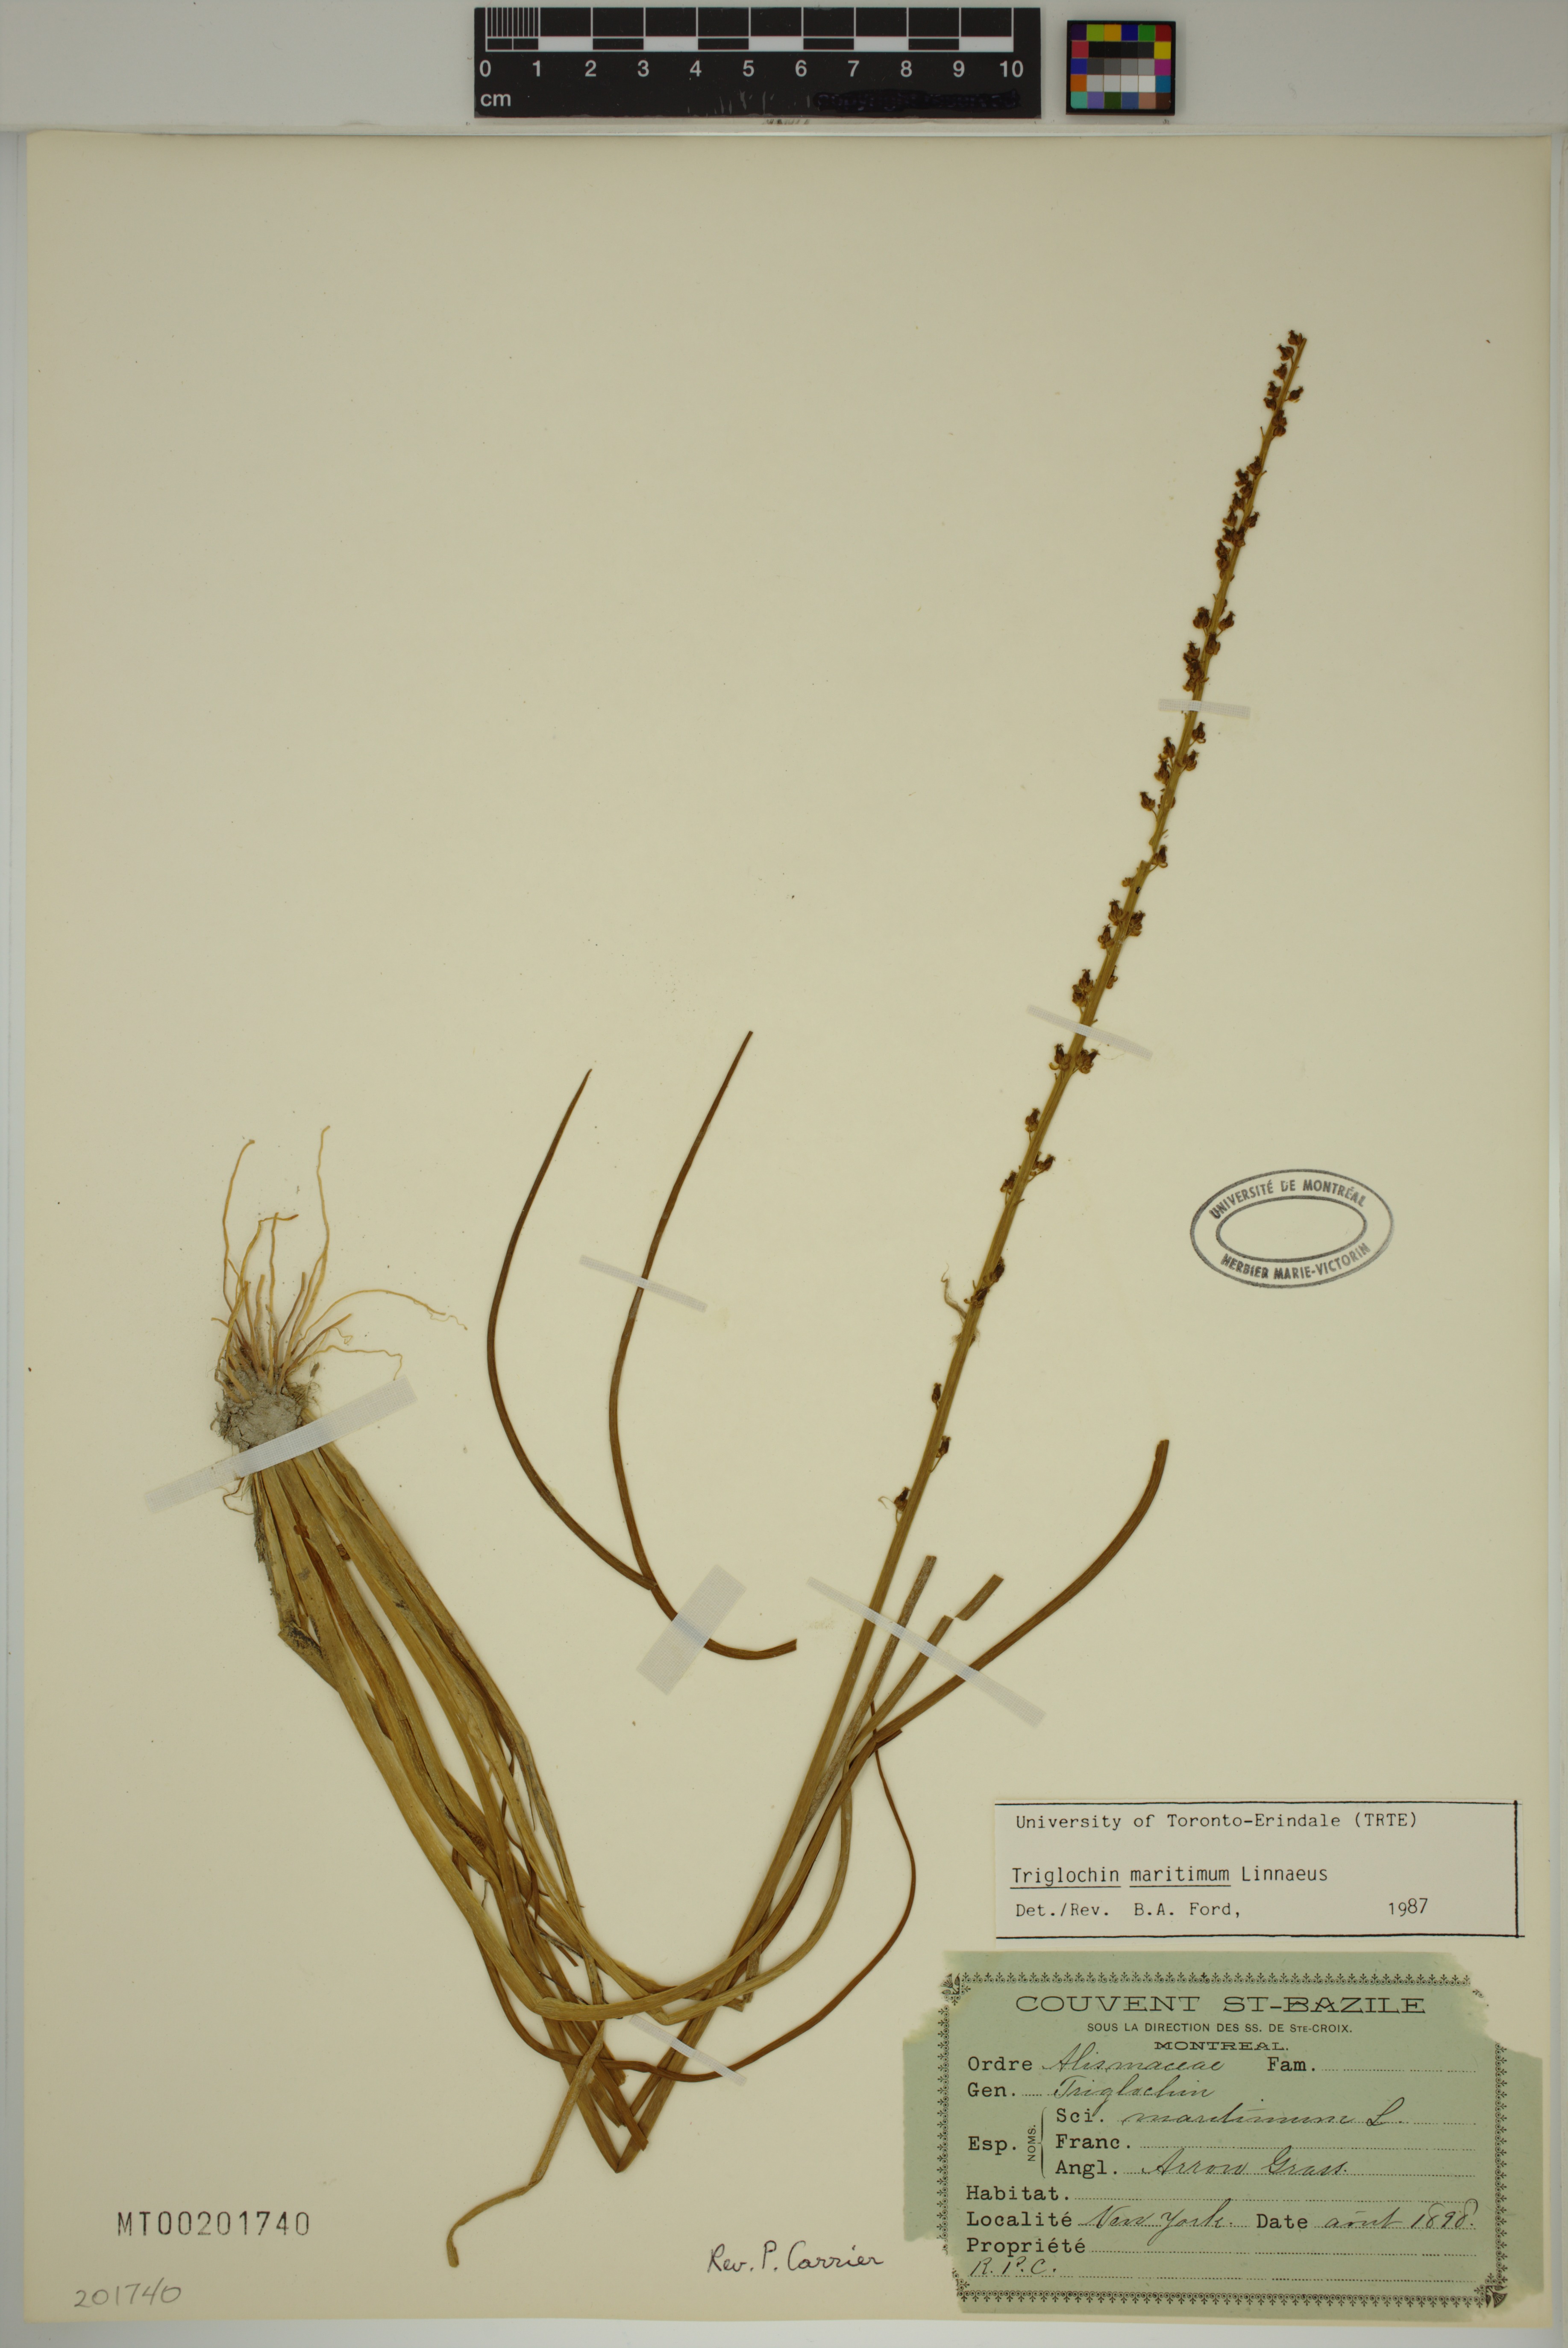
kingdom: Plantae
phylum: Tracheophyta
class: Liliopsida
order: Alismatales
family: Juncaginaceae
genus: Triglochin
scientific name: Triglochin maritima
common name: Sea arrowgrass
